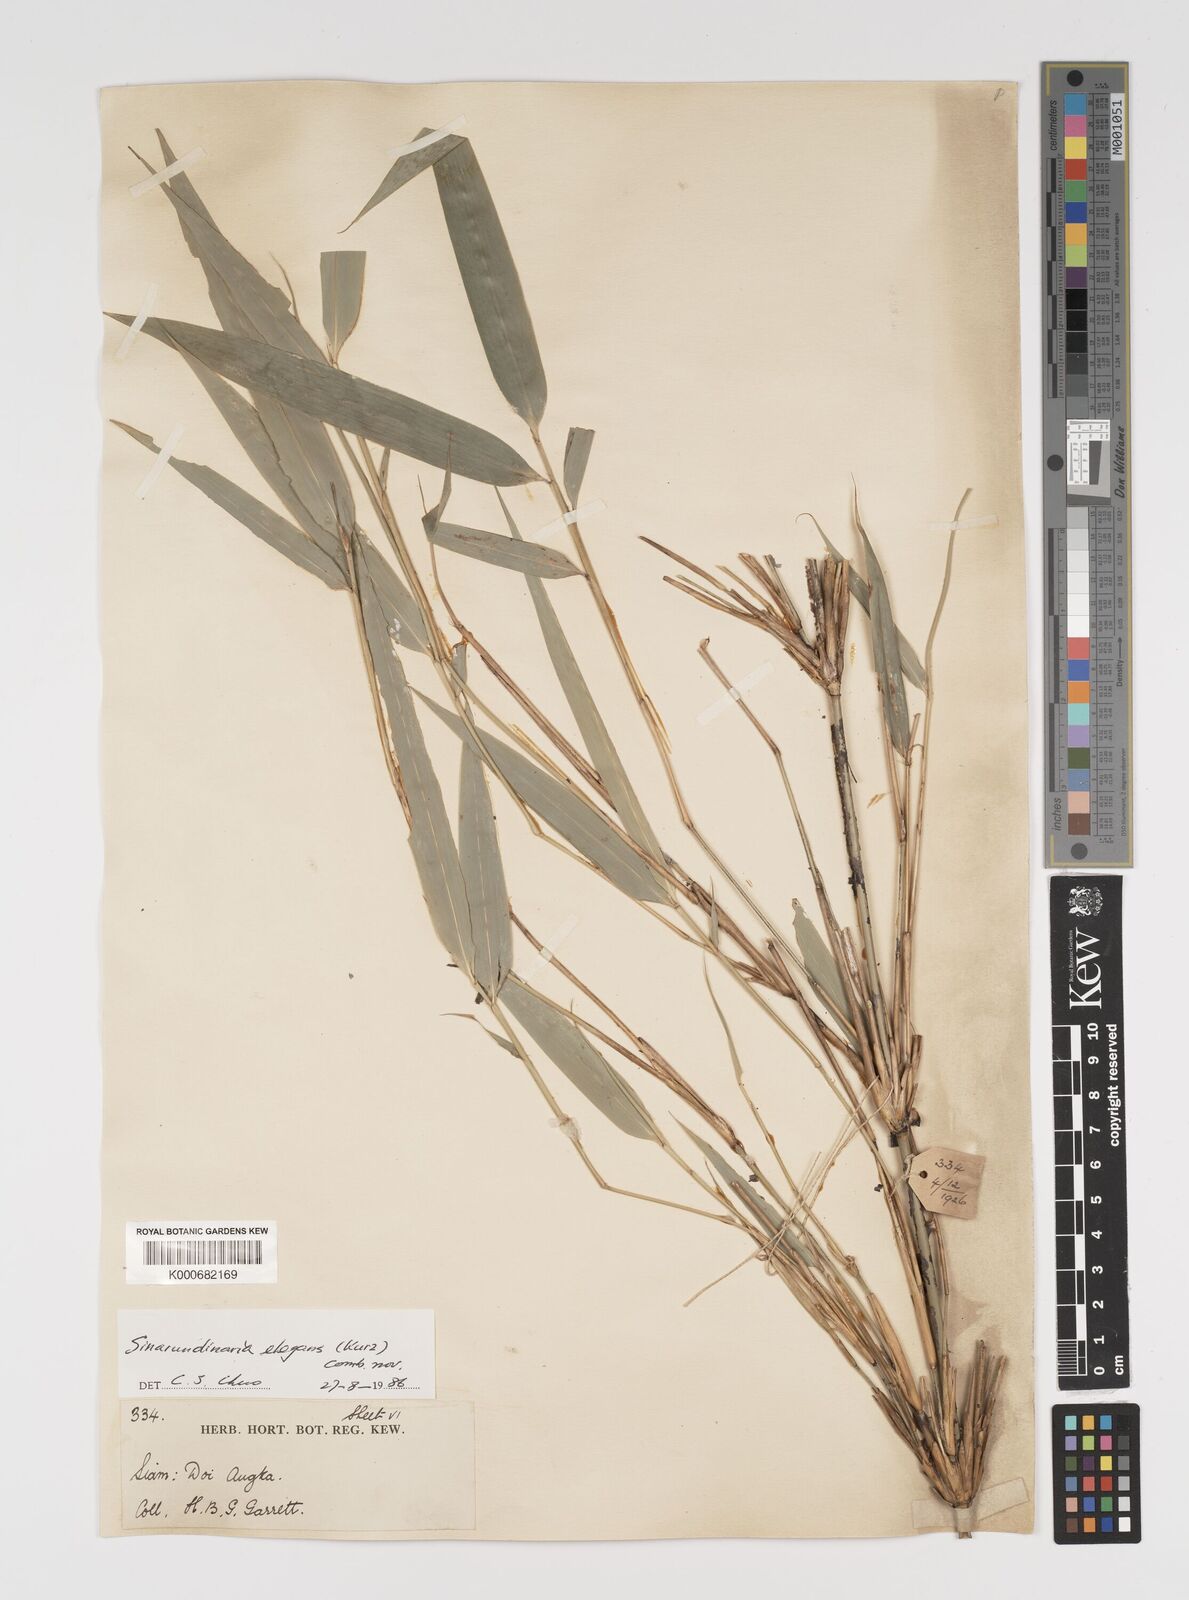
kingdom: Plantae
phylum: Tracheophyta
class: Liliopsida
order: Poales
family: Poaceae
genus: Yushania
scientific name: Yushania schmidiana
